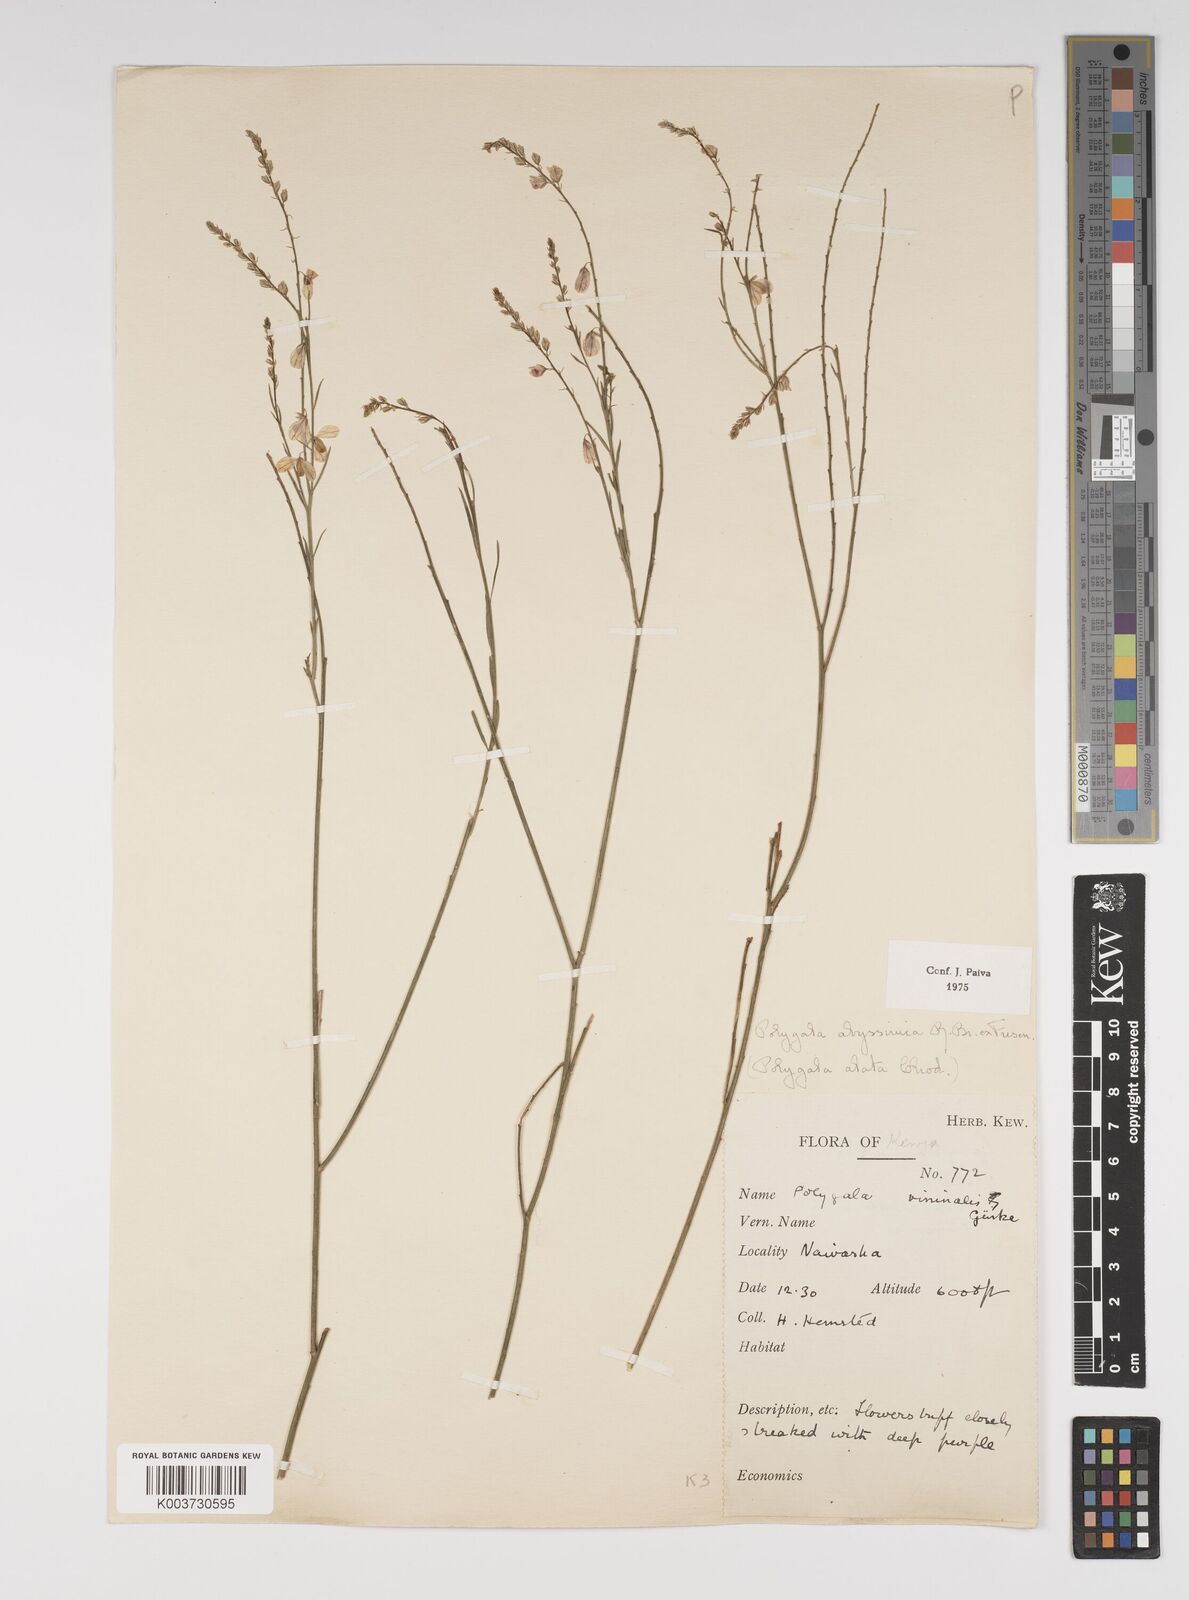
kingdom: Plantae
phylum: Tracheophyta
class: Magnoliopsida
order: Fabales
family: Polygalaceae
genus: Polygala
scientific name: Polygala abyssinica
